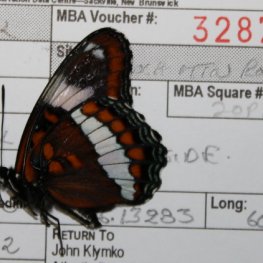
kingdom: Animalia
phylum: Arthropoda
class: Insecta
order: Lepidoptera
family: Nymphalidae
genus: Limenitis
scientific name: Limenitis arthemis
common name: Red-spotted Admiral
